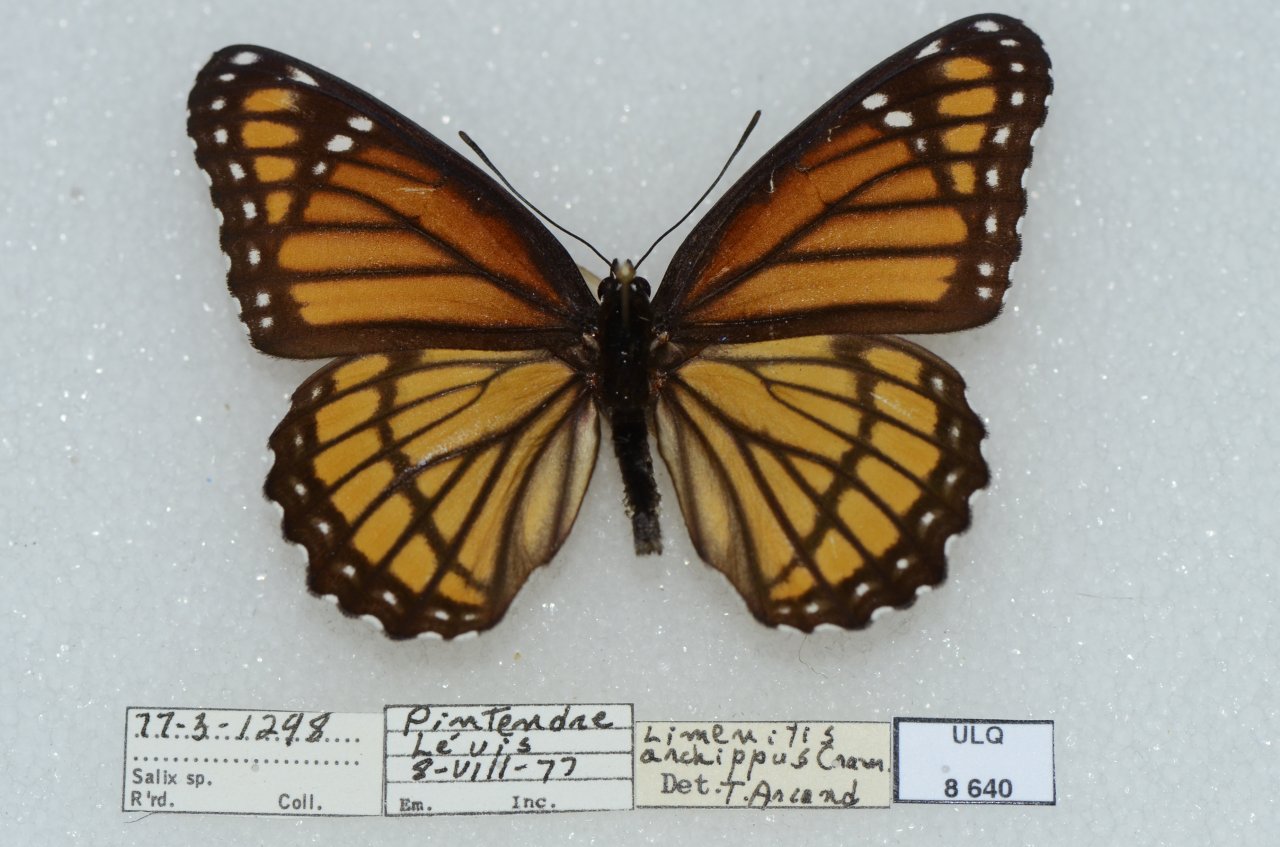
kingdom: Animalia
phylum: Arthropoda
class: Insecta
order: Lepidoptera
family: Nymphalidae
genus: Limenitis
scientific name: Limenitis archippus
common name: Viceroy
